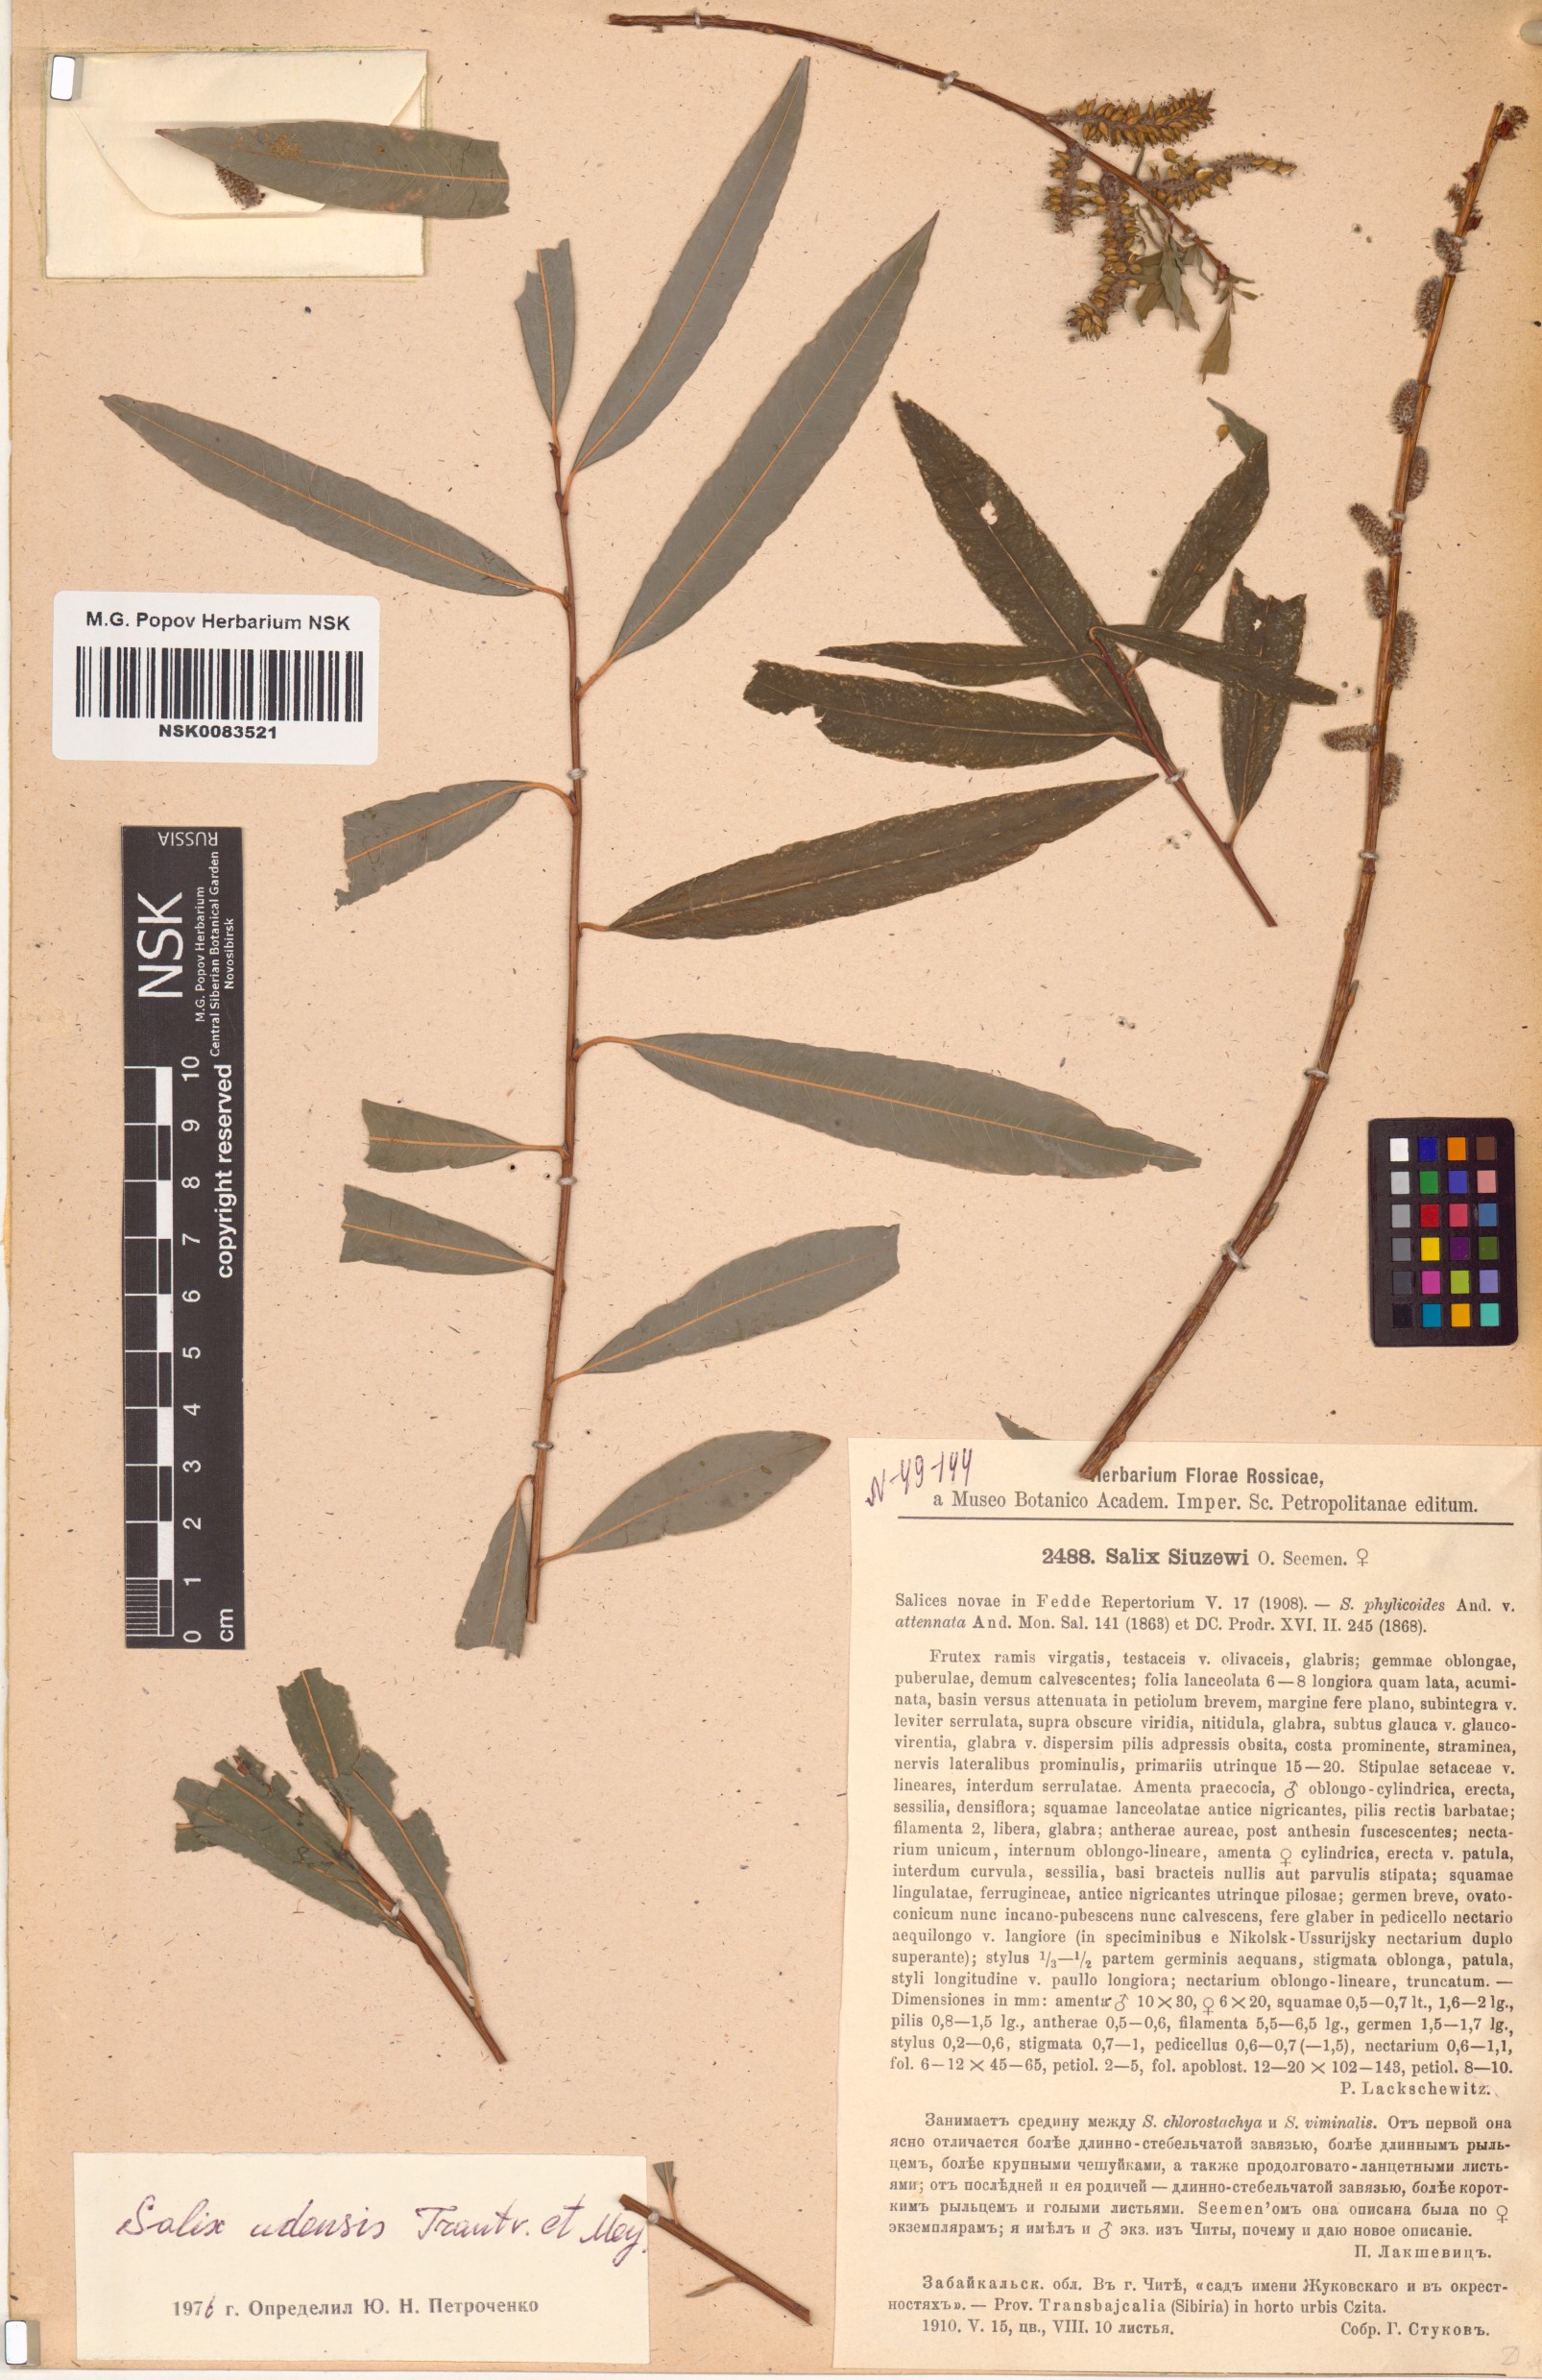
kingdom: Plantae
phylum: Tracheophyta
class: Magnoliopsida
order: Malpighiales
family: Salicaceae
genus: Salix
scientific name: Salix udensis
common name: Sachalin willow
